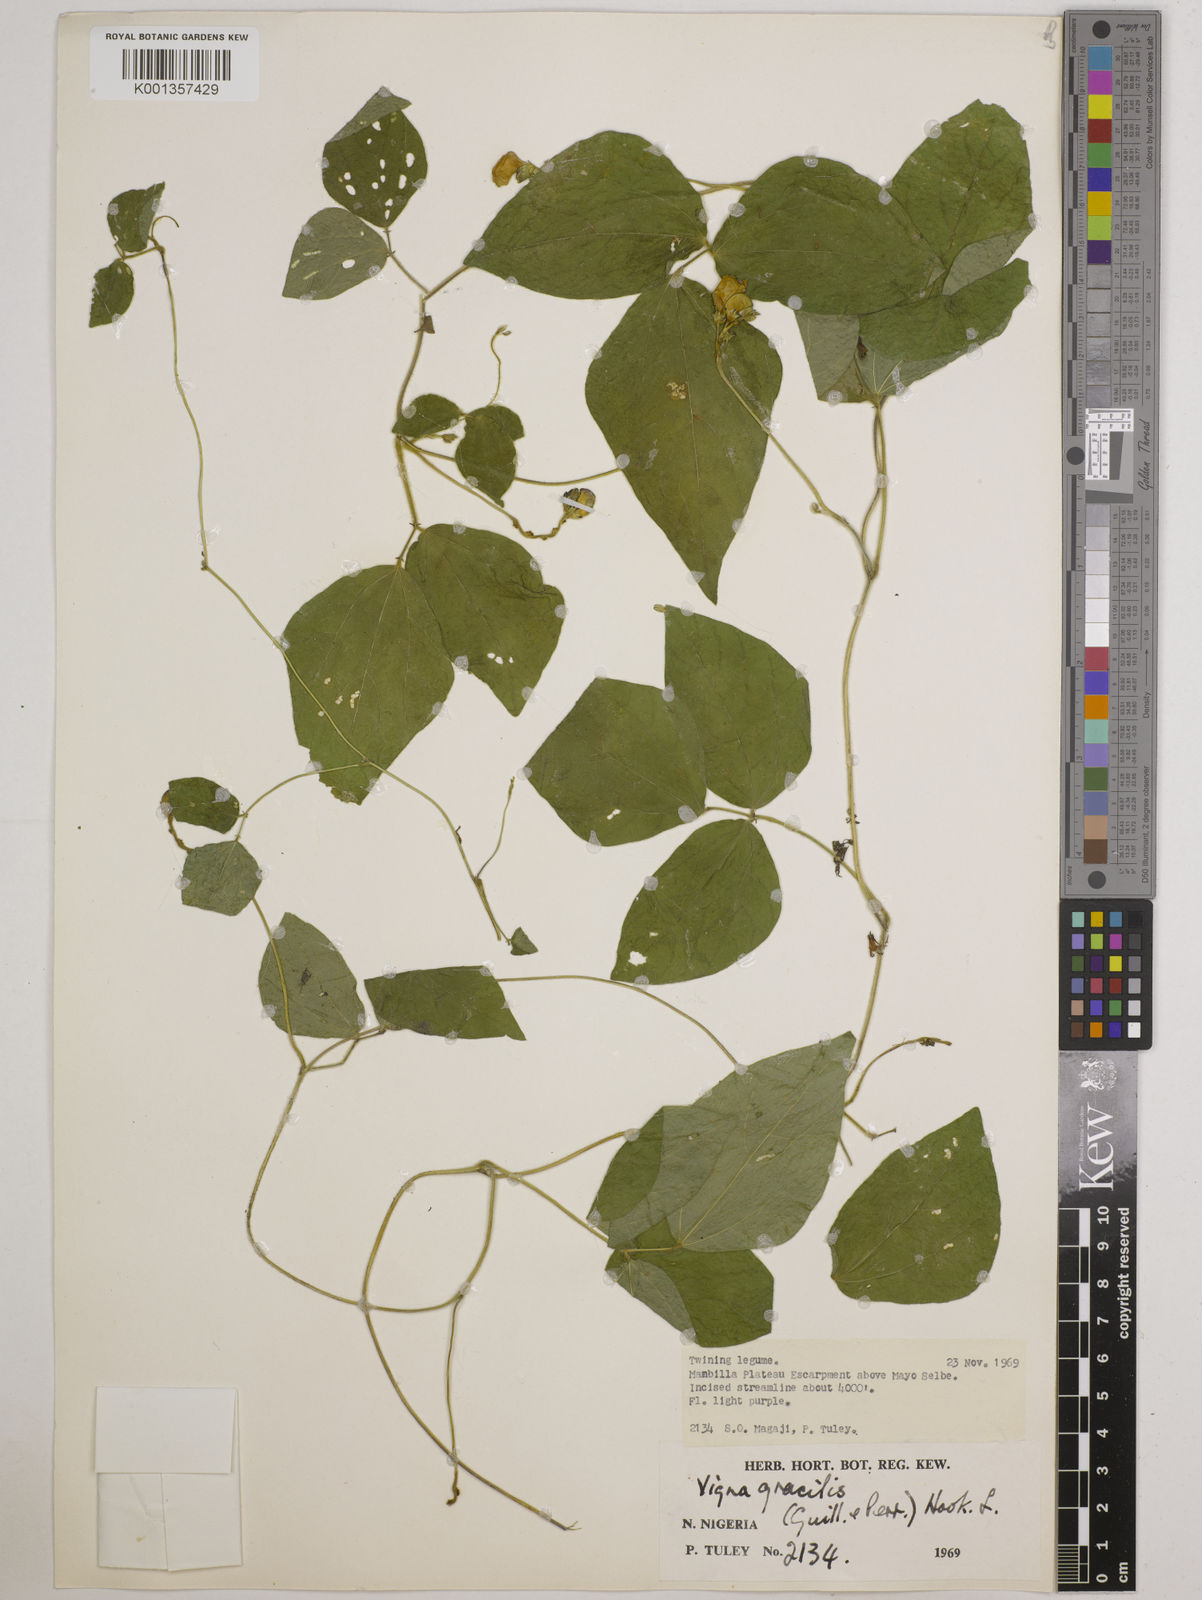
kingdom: Plantae
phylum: Tracheophyta
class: Magnoliopsida
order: Fabales
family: Fabaceae
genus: Vigna
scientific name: Vigna gracilis
